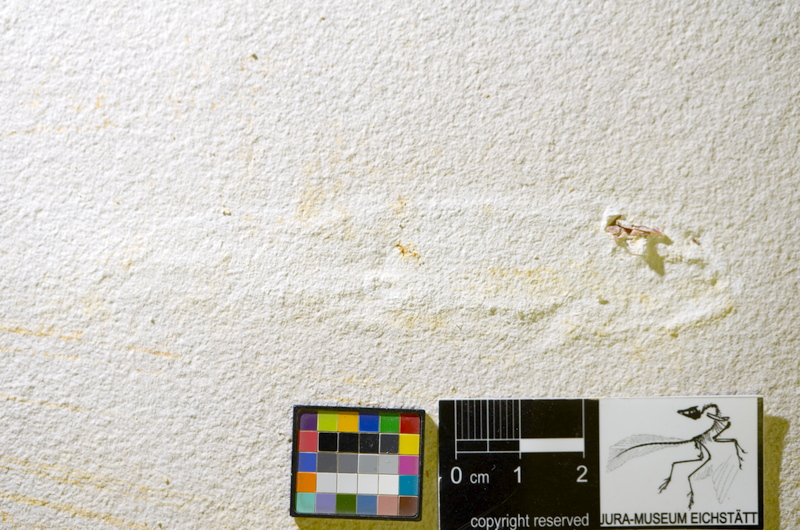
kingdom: Animalia
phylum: Chordata
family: Ophiopsiellidae
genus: Ophiopsis
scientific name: Ophiopsis muensteri
